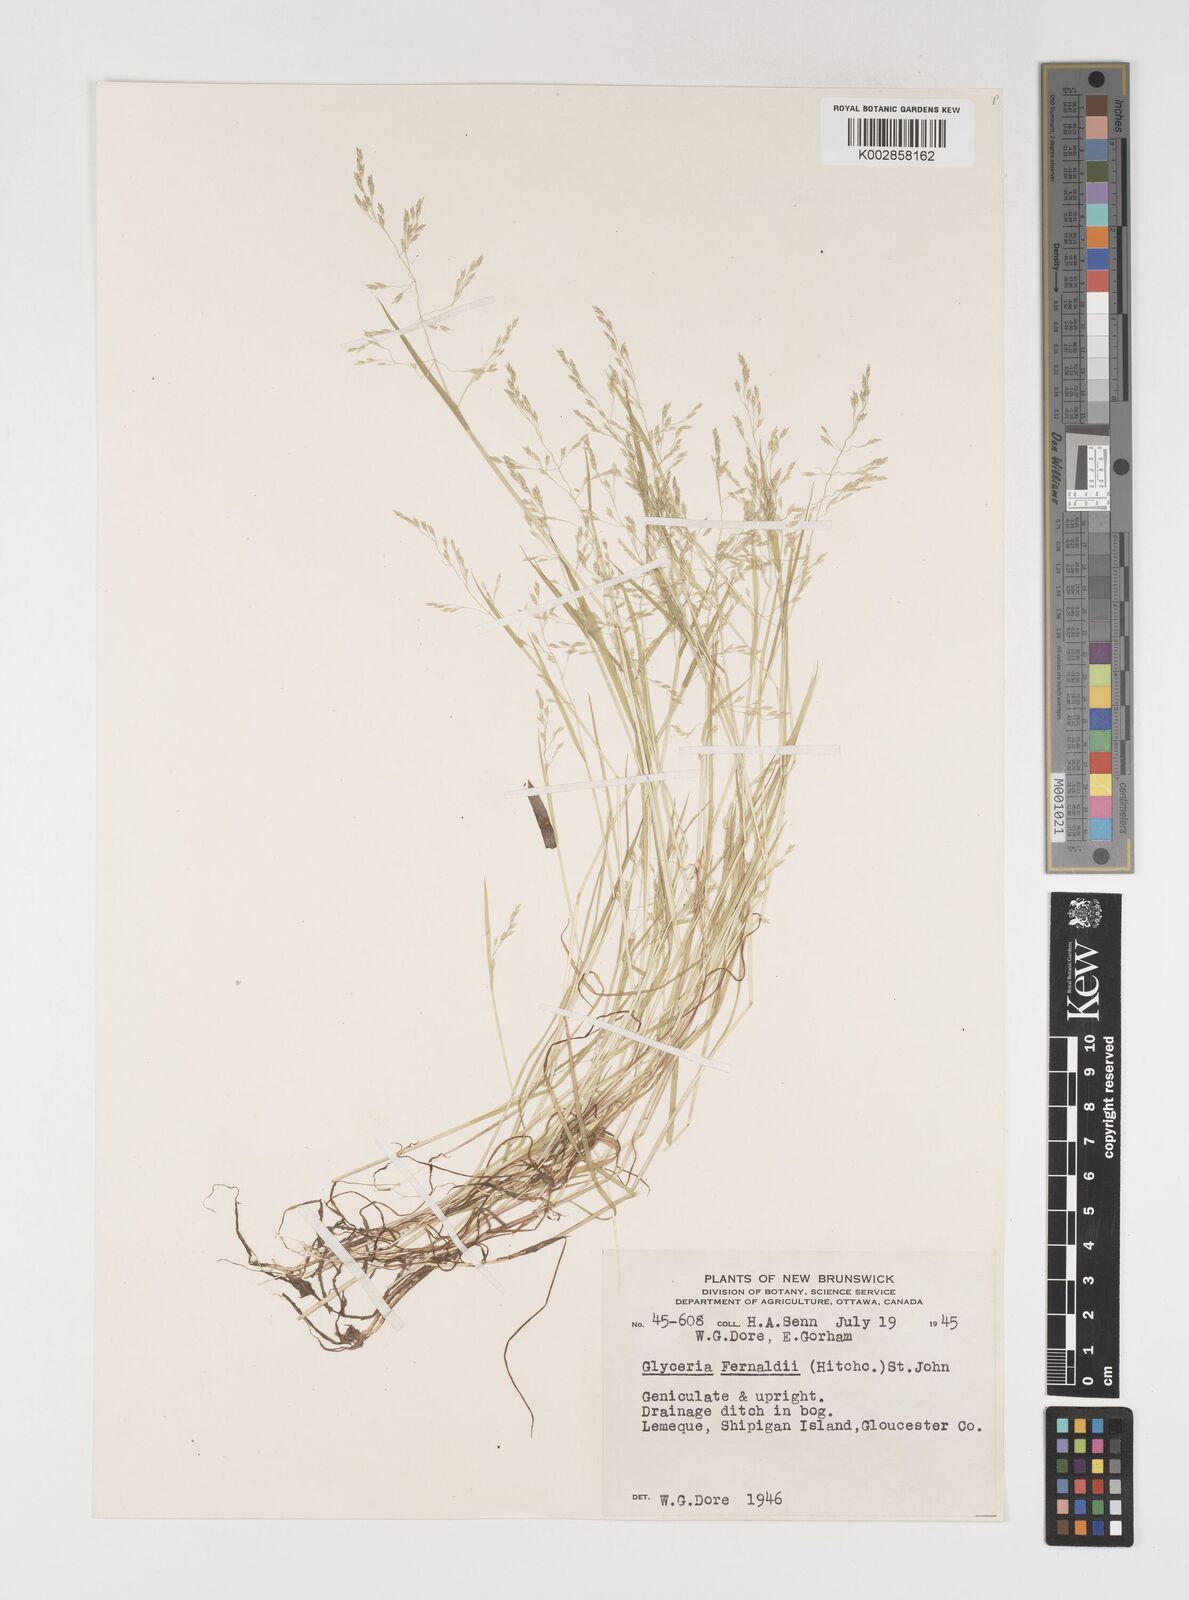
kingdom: Plantae
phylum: Tracheophyta
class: Liliopsida
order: Poales
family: Poaceae
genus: Torreyochloa
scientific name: Torreyochloa pallida
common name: Pale false mannagrass
